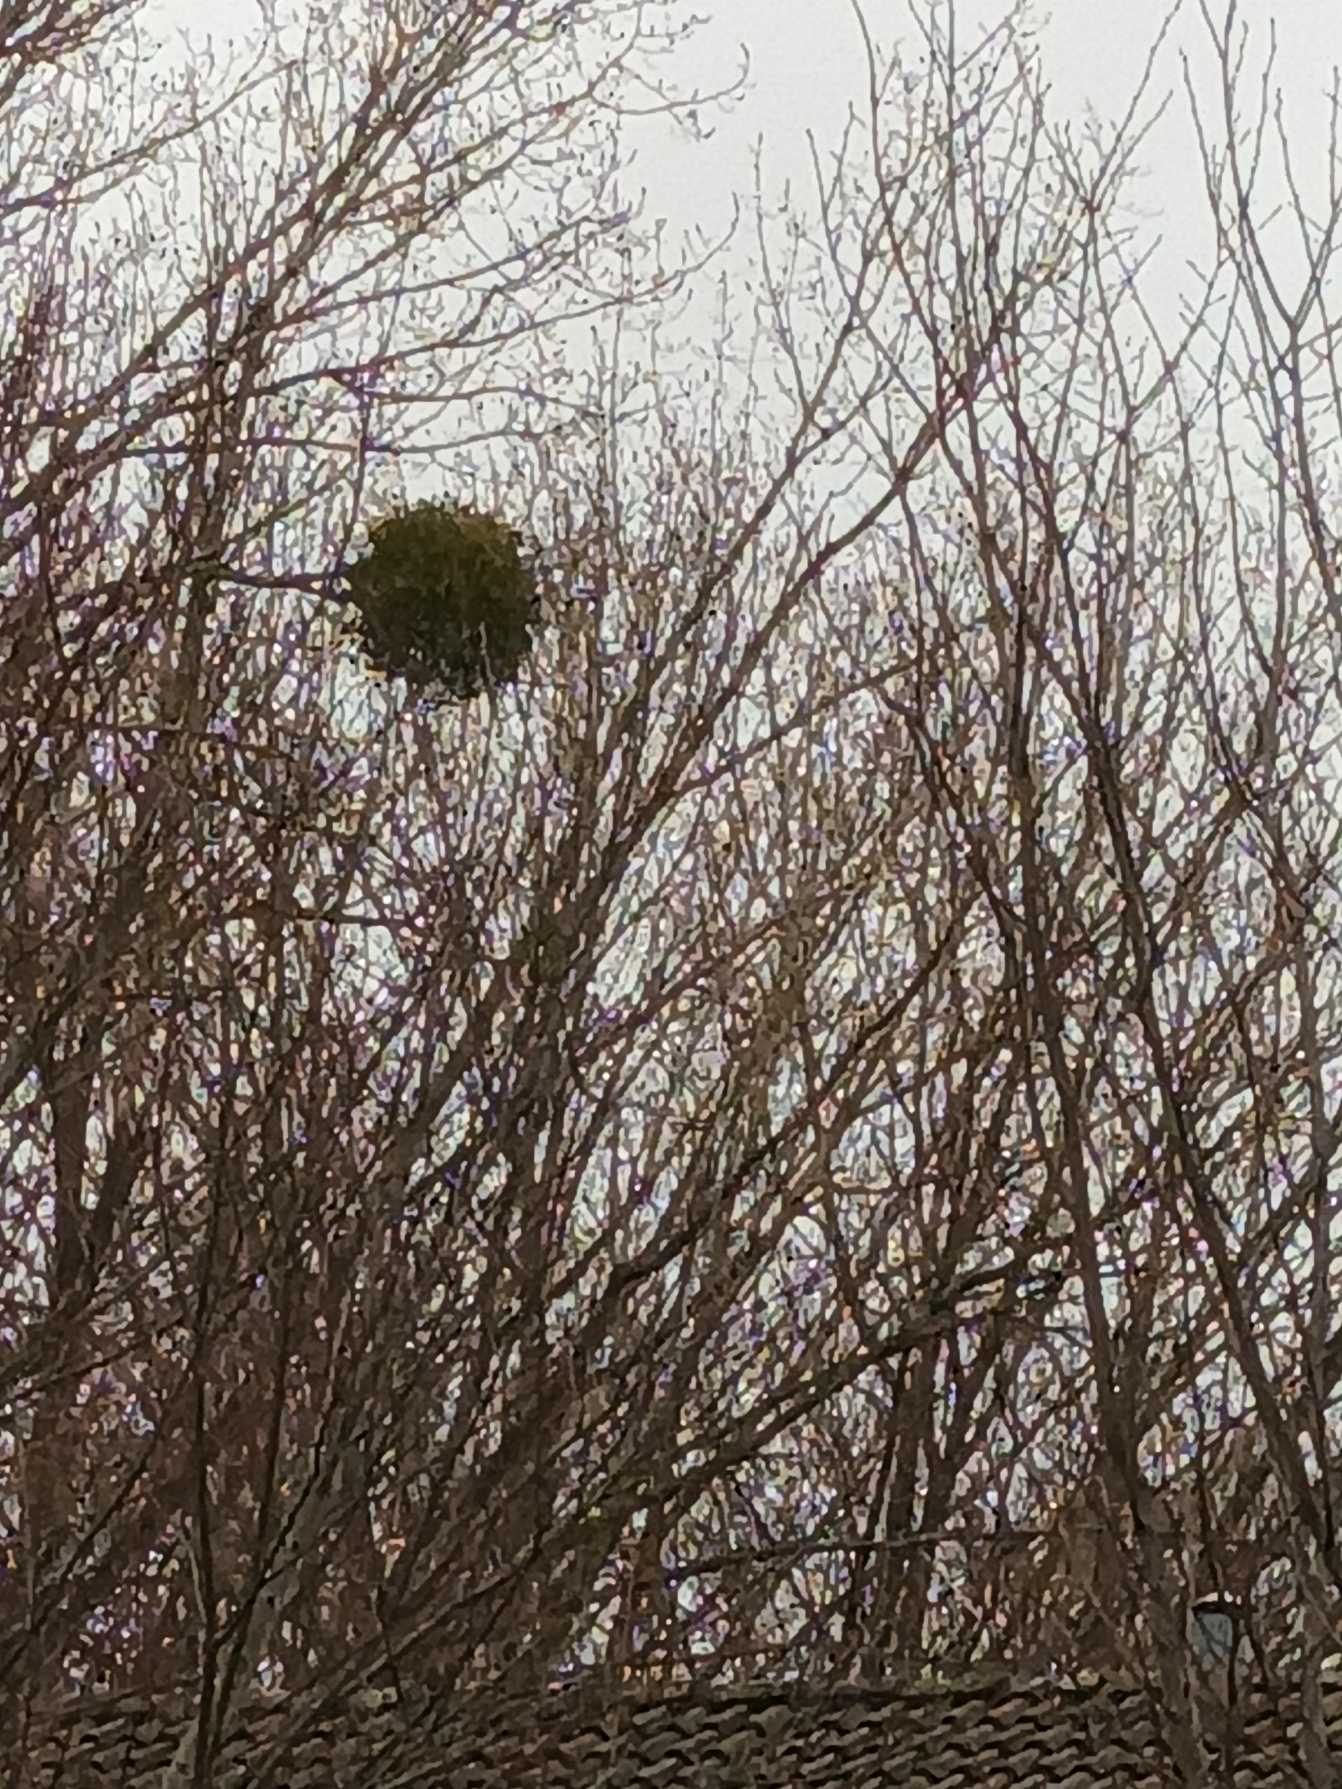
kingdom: Plantae
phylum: Tracheophyta
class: Magnoliopsida
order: Santalales
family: Viscaceae
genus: Viscum
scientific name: Viscum album
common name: Mistelten
